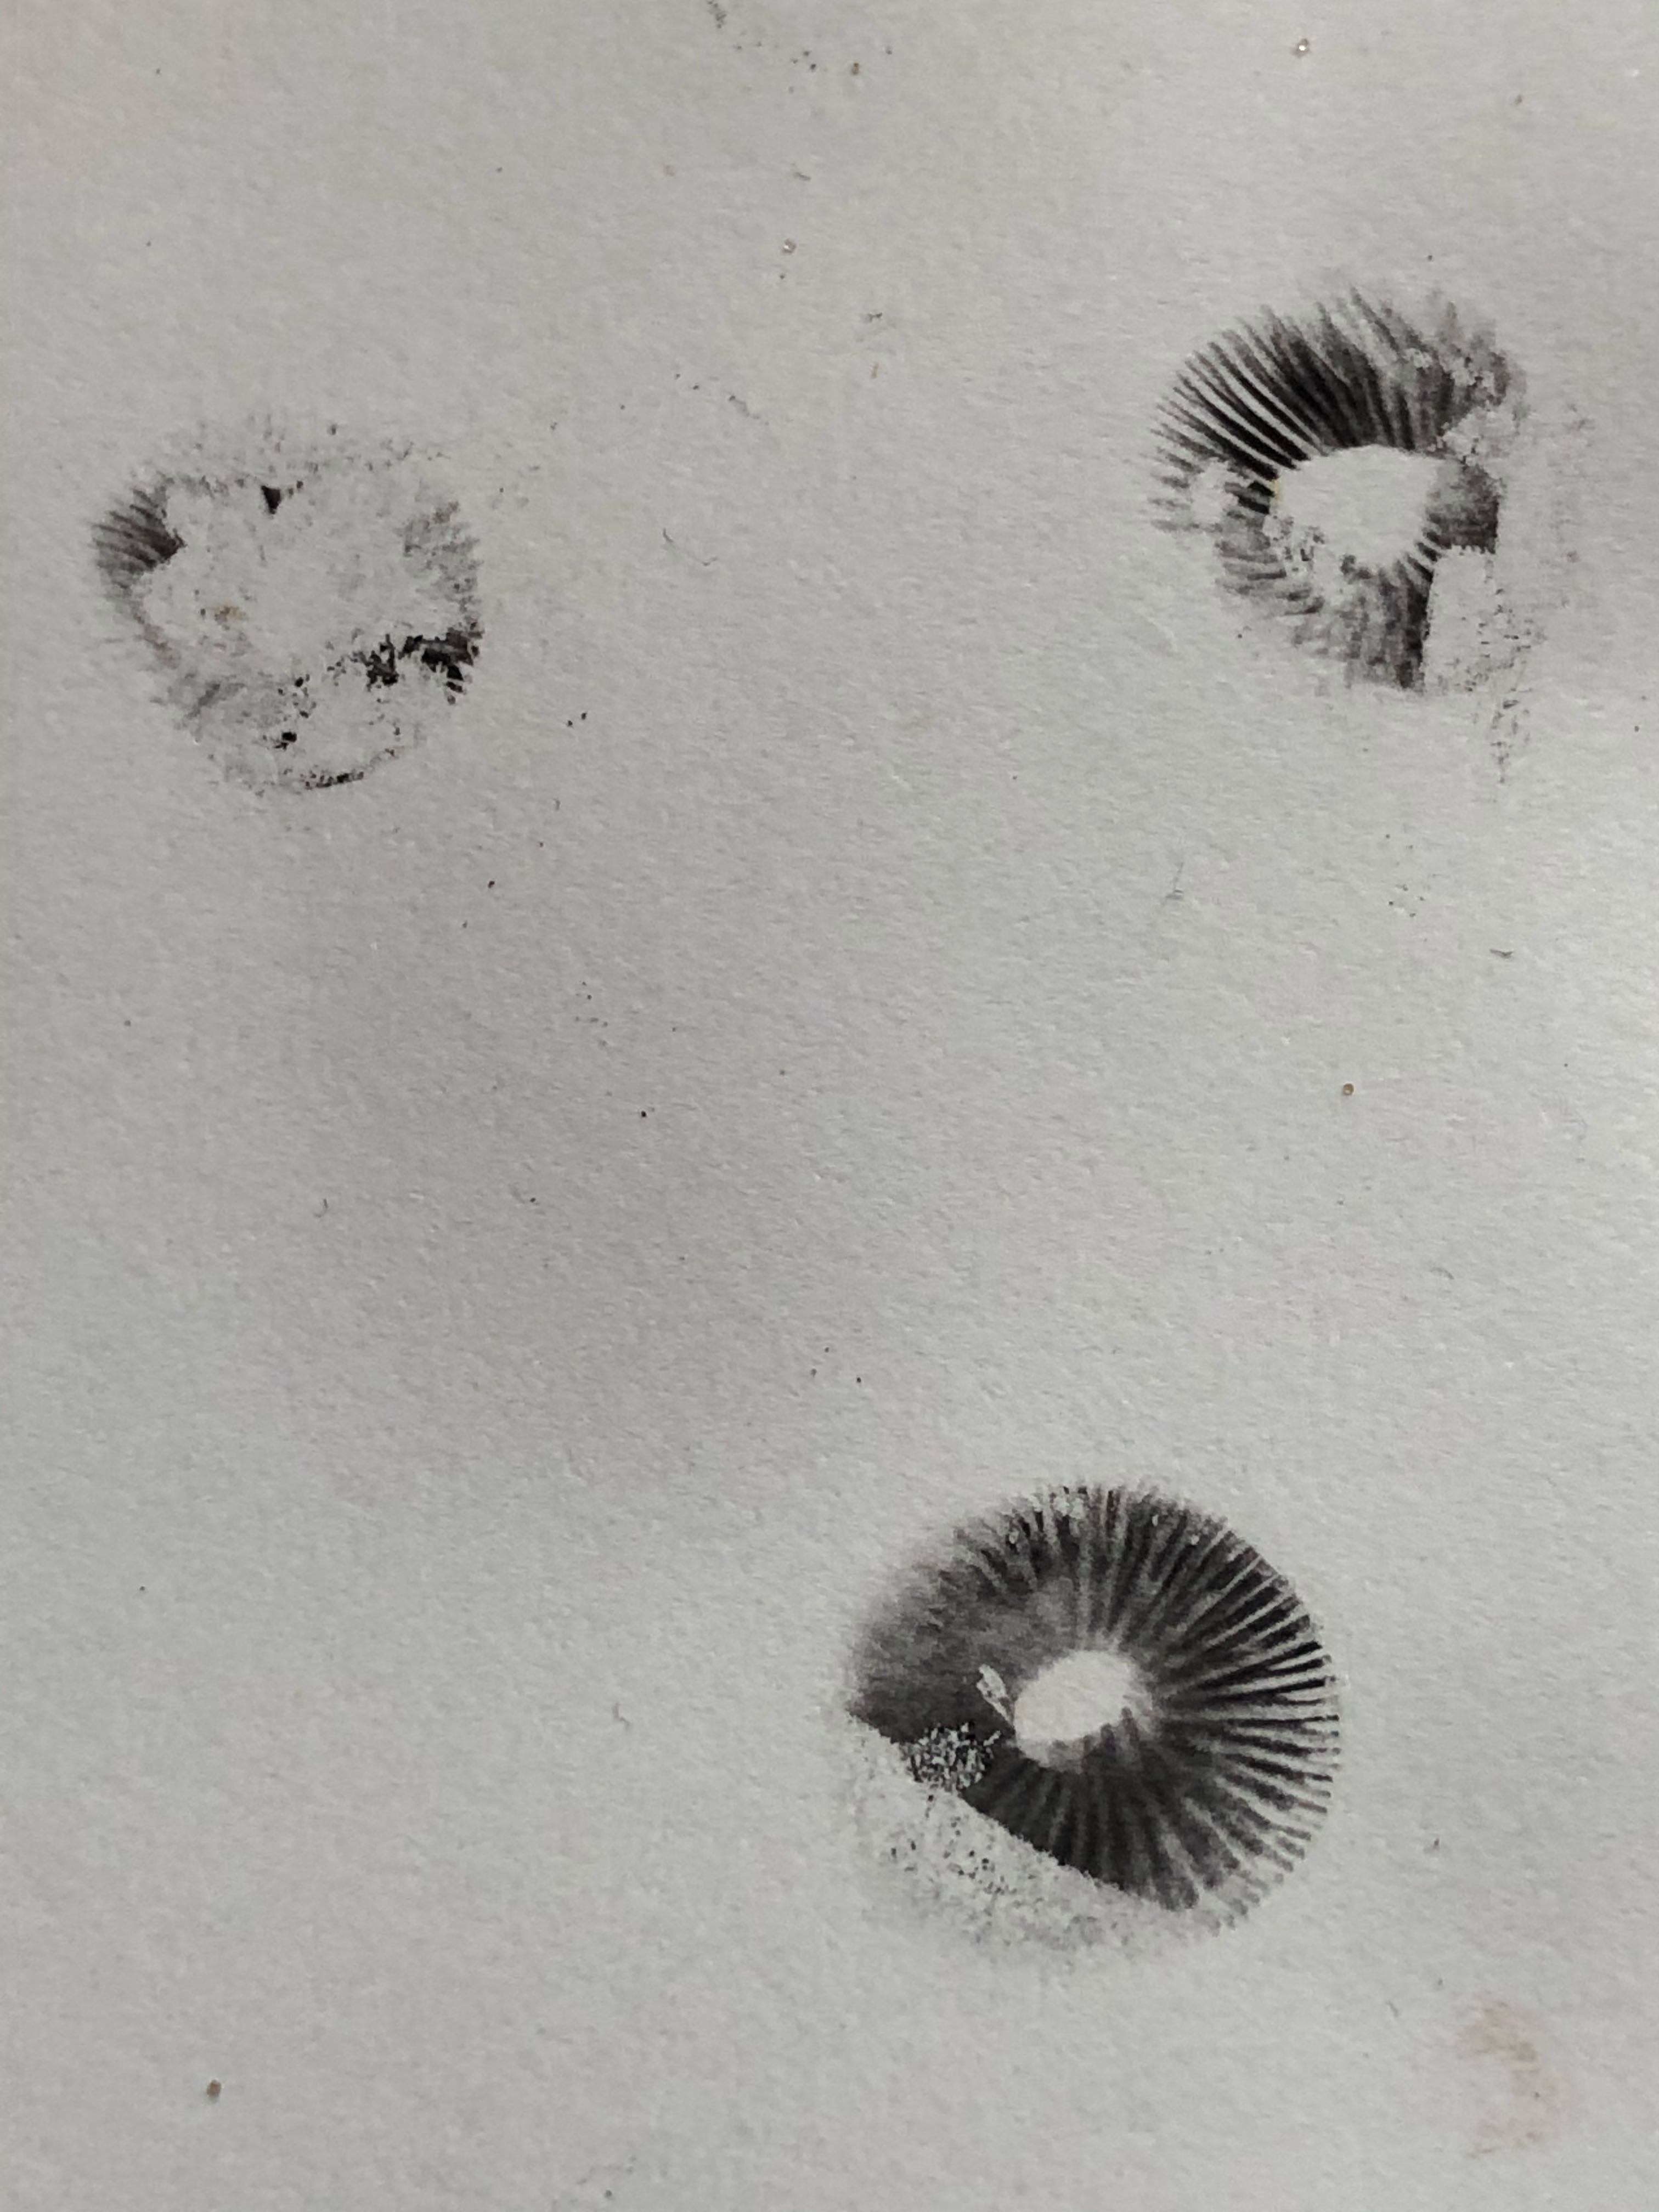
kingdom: Fungi
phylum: Basidiomycota
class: Agaricomycetes
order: Agaricales
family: Bolbitiaceae
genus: Panaeolus
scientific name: Panaeolus fimicola
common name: tidlig glanshat
